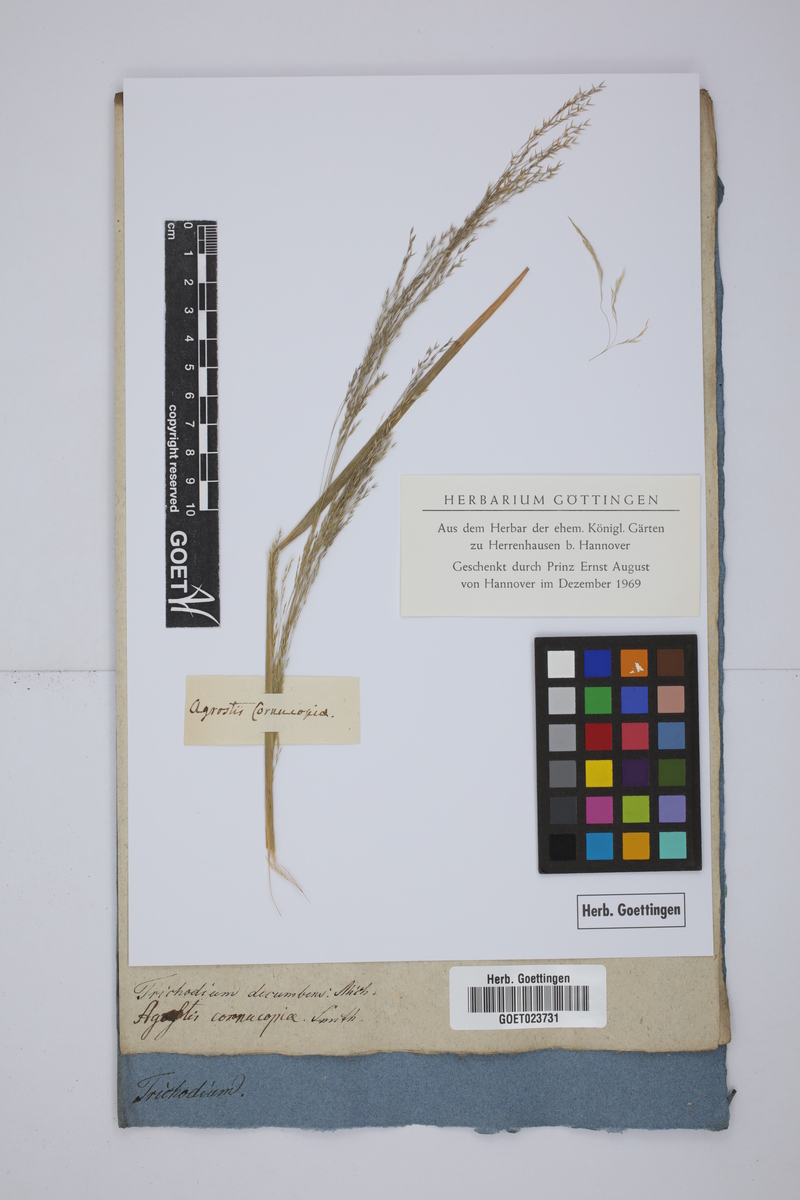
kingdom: Plantae
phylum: Tracheophyta
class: Liliopsida
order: Poales
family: Poaceae
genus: Agrostis
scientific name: Agrostis perennans
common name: Autumn bent
